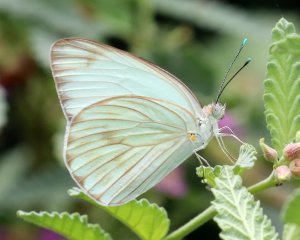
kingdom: Animalia
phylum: Arthropoda
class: Insecta
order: Lepidoptera
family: Pieridae
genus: Ascia
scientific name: Ascia monuste
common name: Great Southern White
